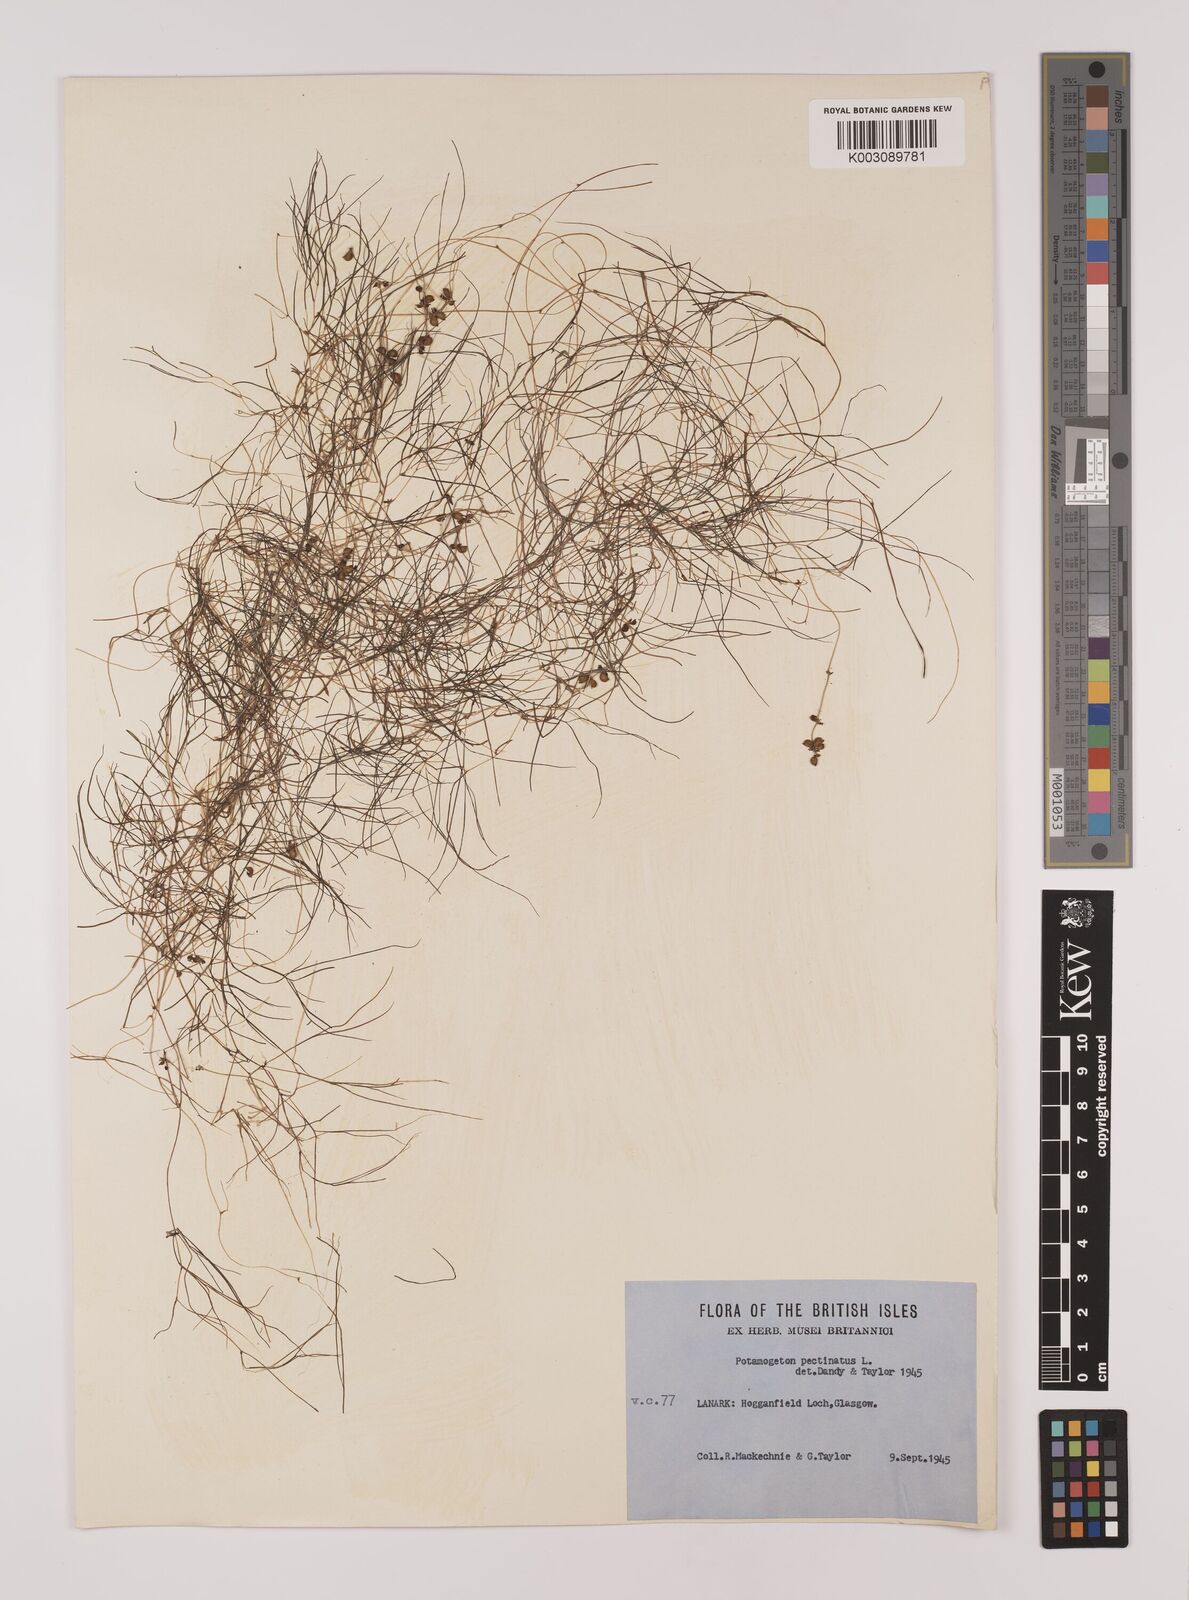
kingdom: Plantae
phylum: Tracheophyta
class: Liliopsida
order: Alismatales
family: Potamogetonaceae
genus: Stuckenia
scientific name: Stuckenia pectinata
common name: Sago pondweed
